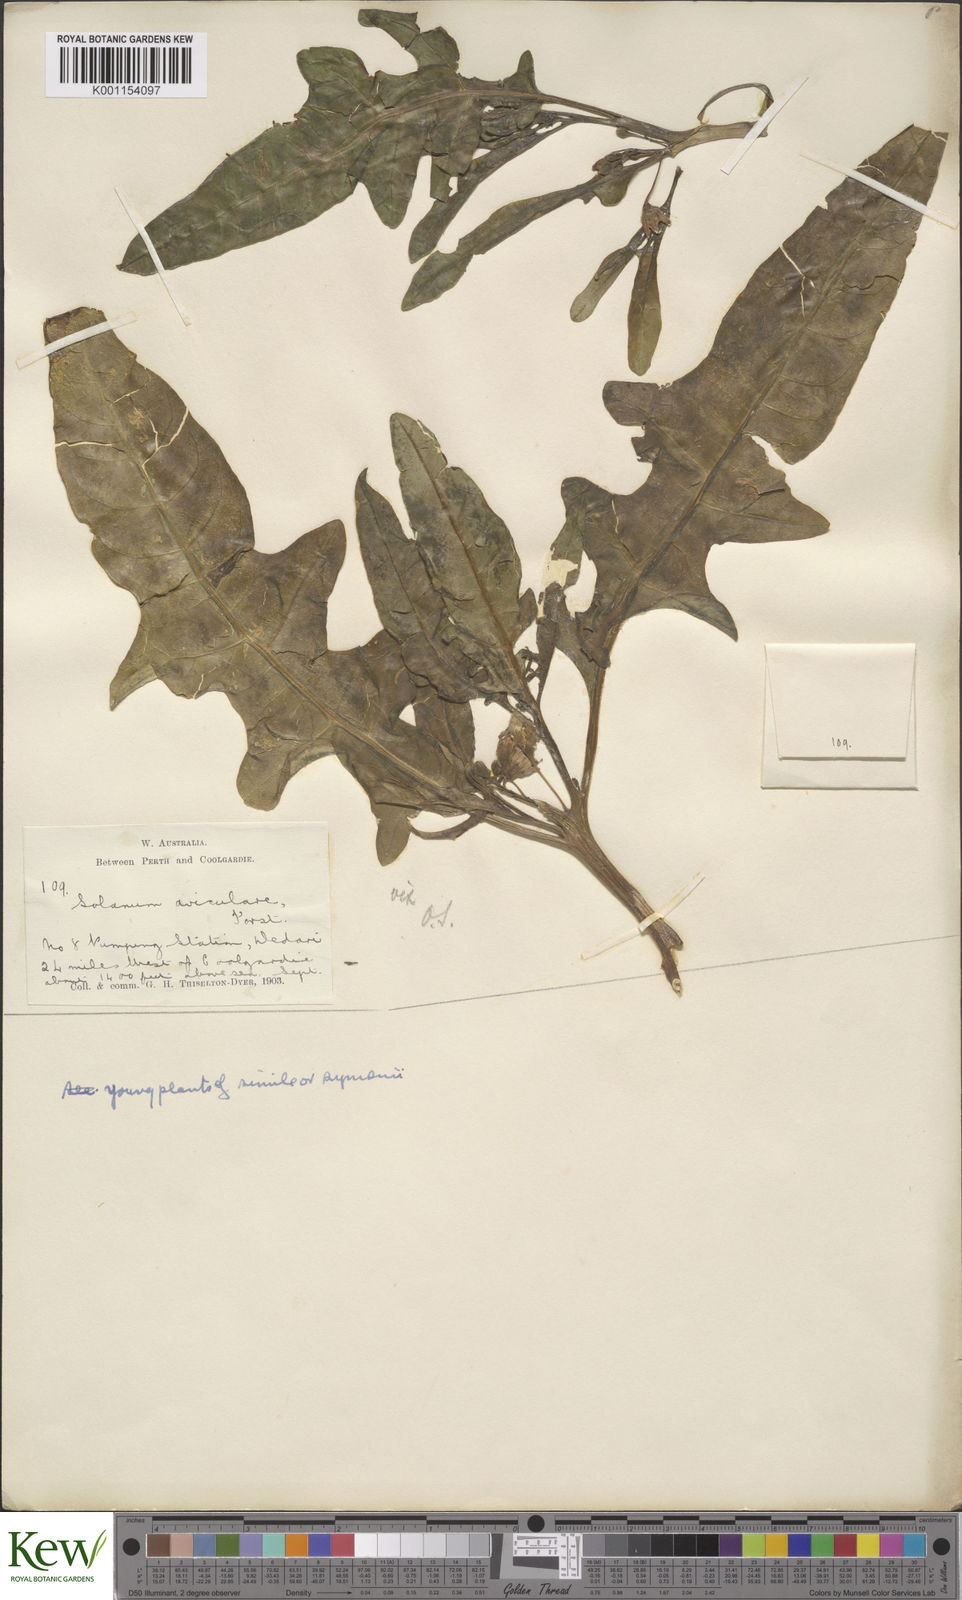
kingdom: Plantae
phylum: Tracheophyta
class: Magnoliopsida
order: Solanales
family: Solanaceae
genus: Solanum
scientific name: Solanum symonii
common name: South australian kangaroo-apple
